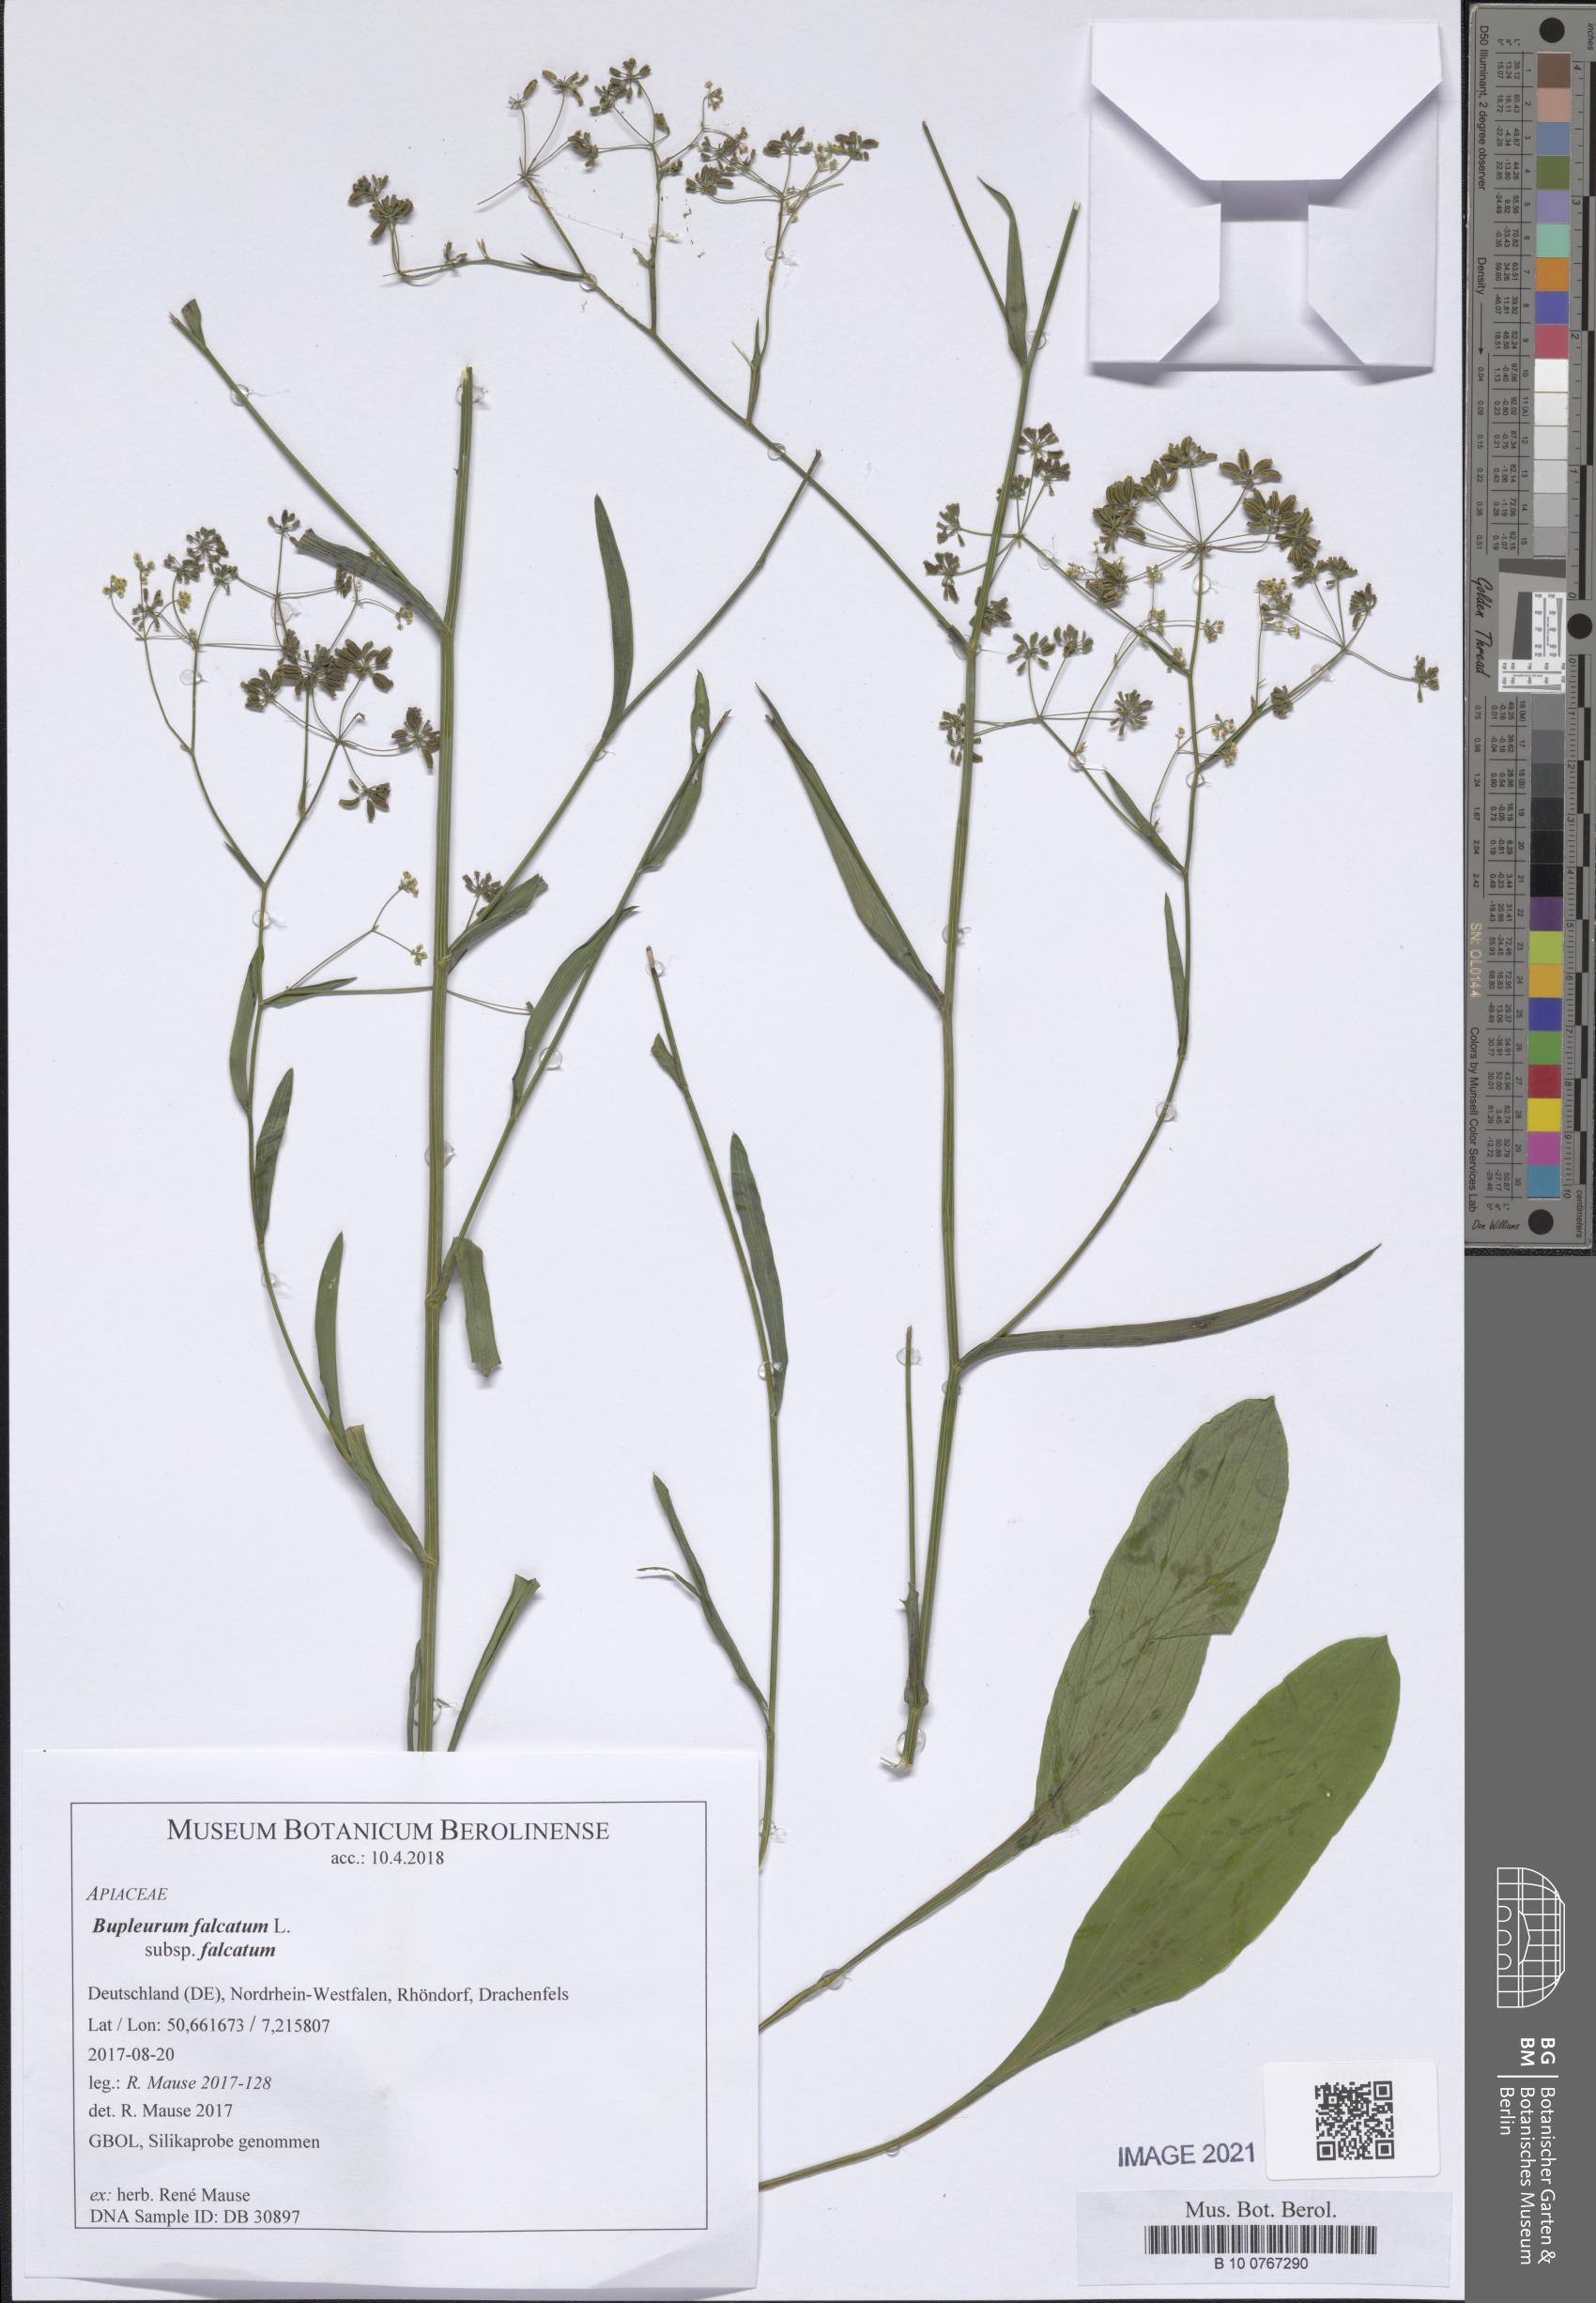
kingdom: Plantae
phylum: Tracheophyta
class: Magnoliopsida
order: Apiales
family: Apiaceae
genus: Bupleurum
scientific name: Bupleurum falcatum
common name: Sickle-leaved hare's-ear
